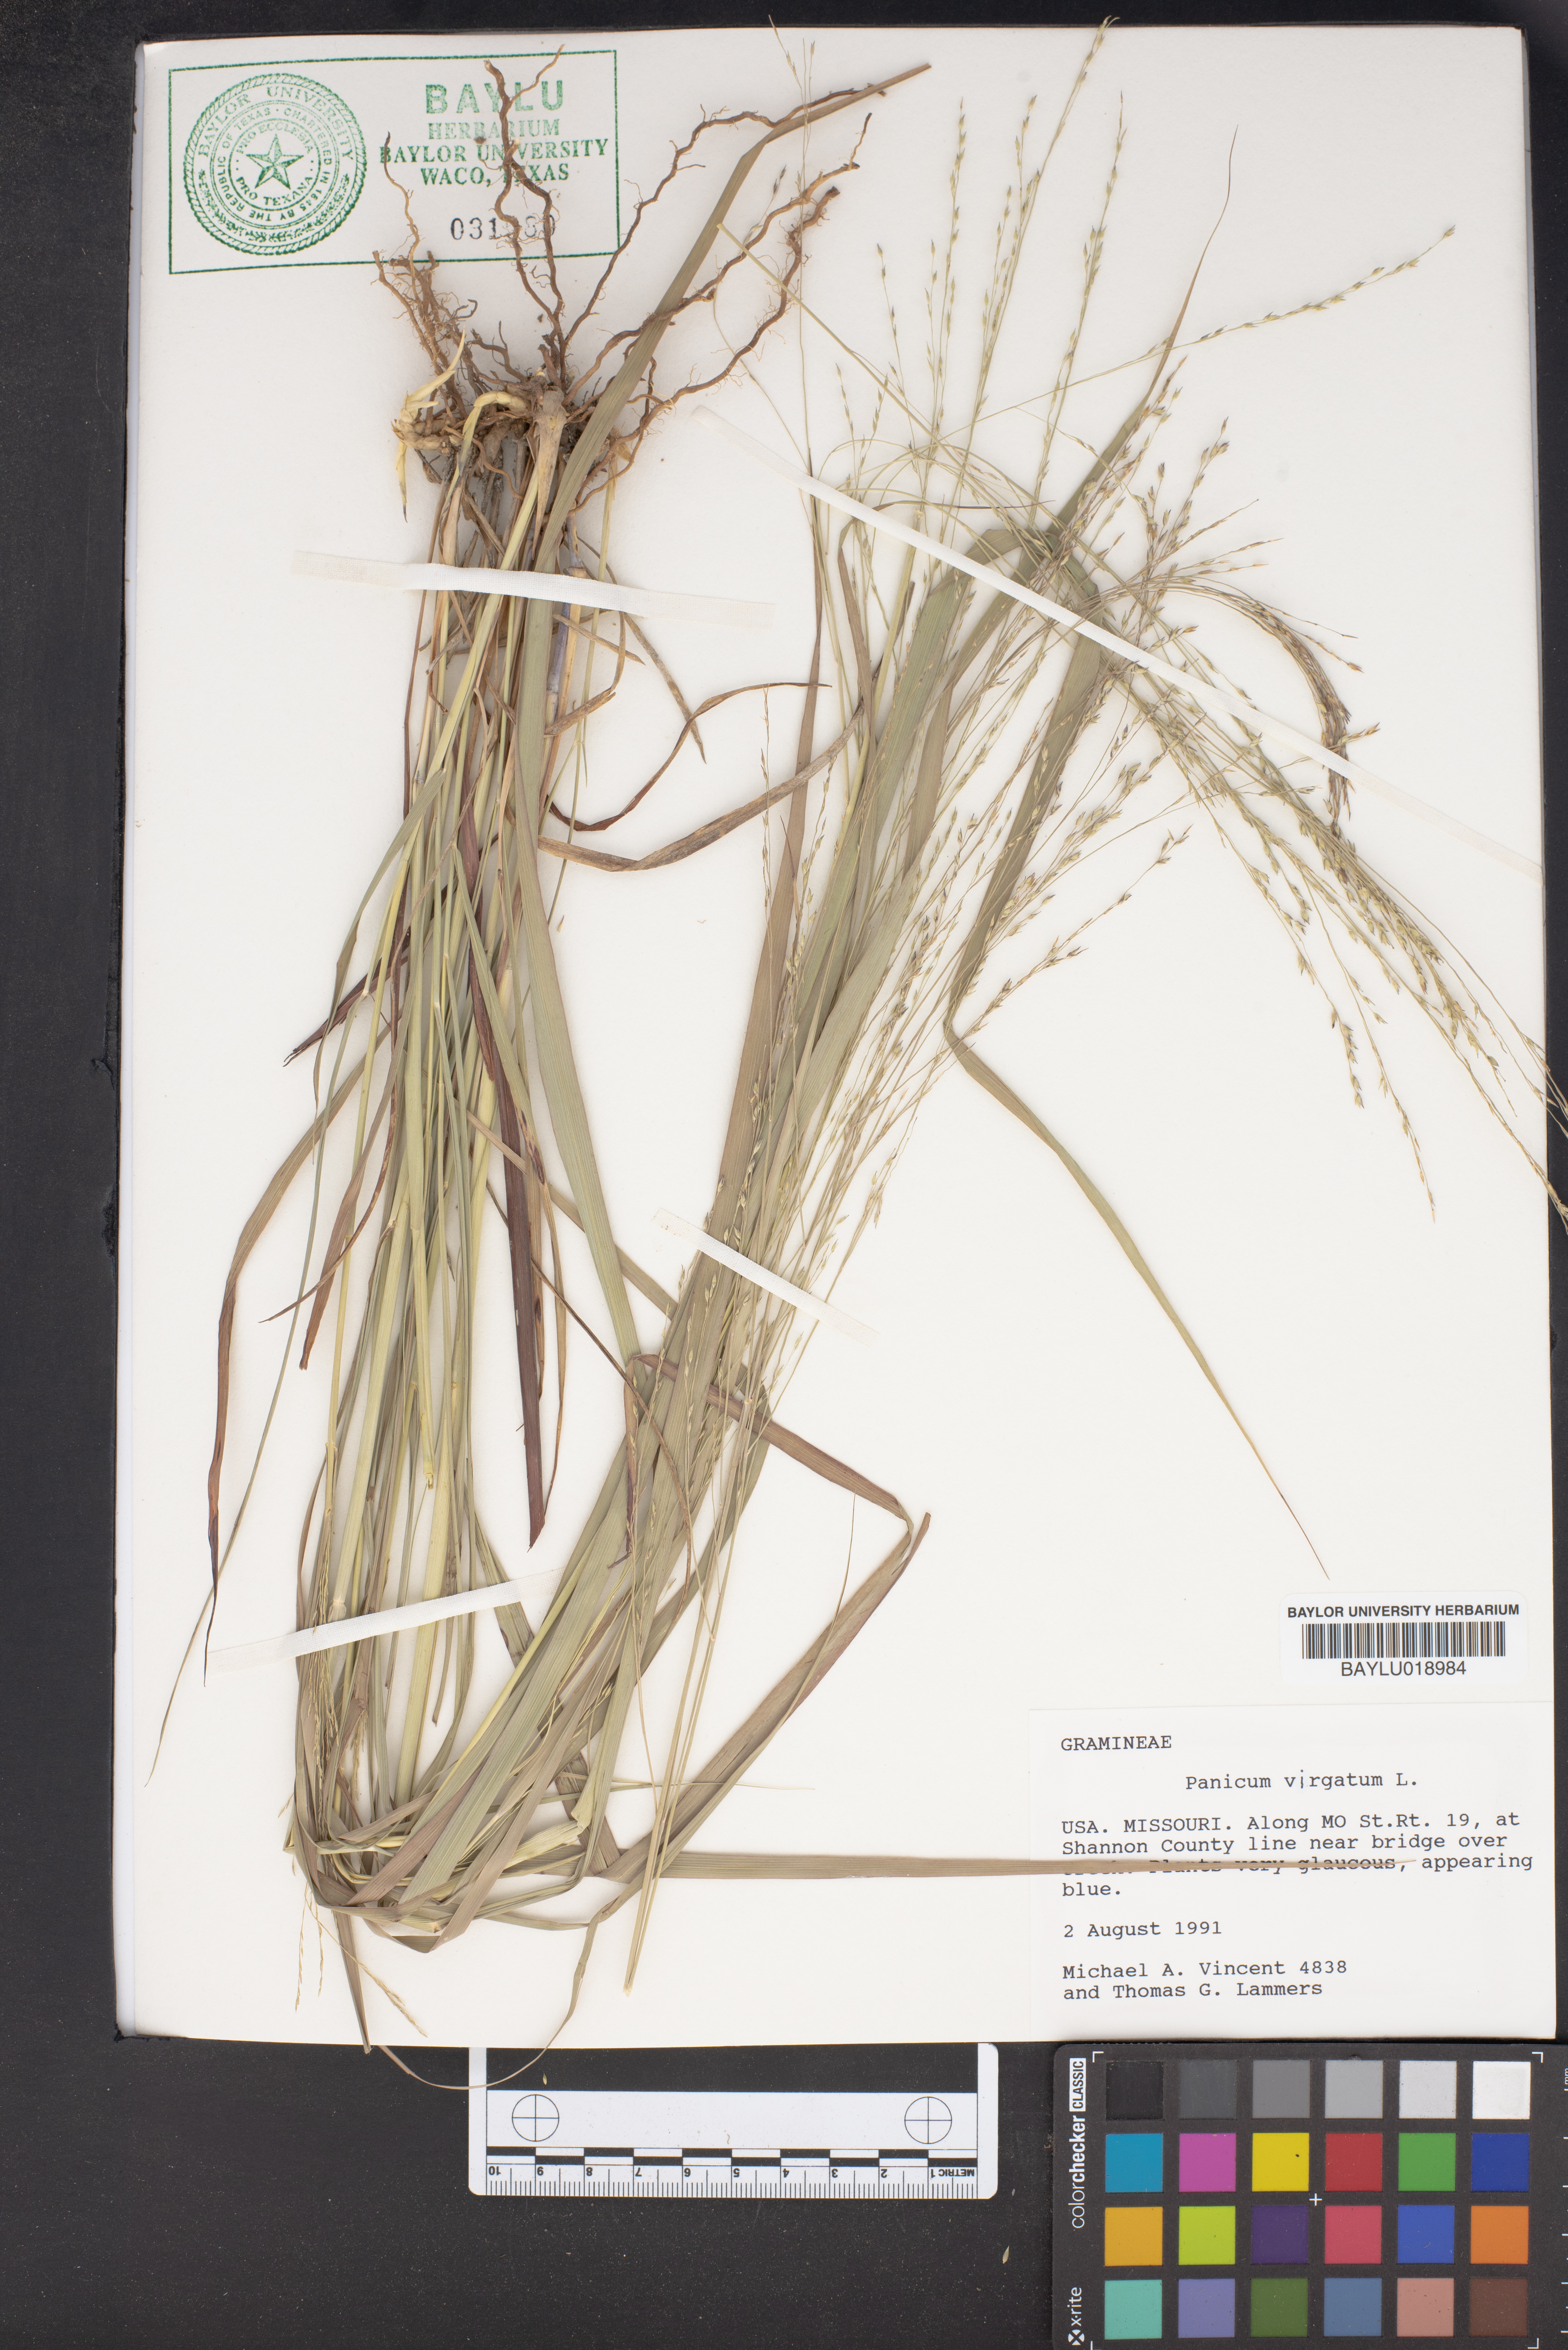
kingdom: Plantae
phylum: Tracheophyta
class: Liliopsida
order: Poales
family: Poaceae
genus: Panicum
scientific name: Panicum virgatum
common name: Switchgrass
